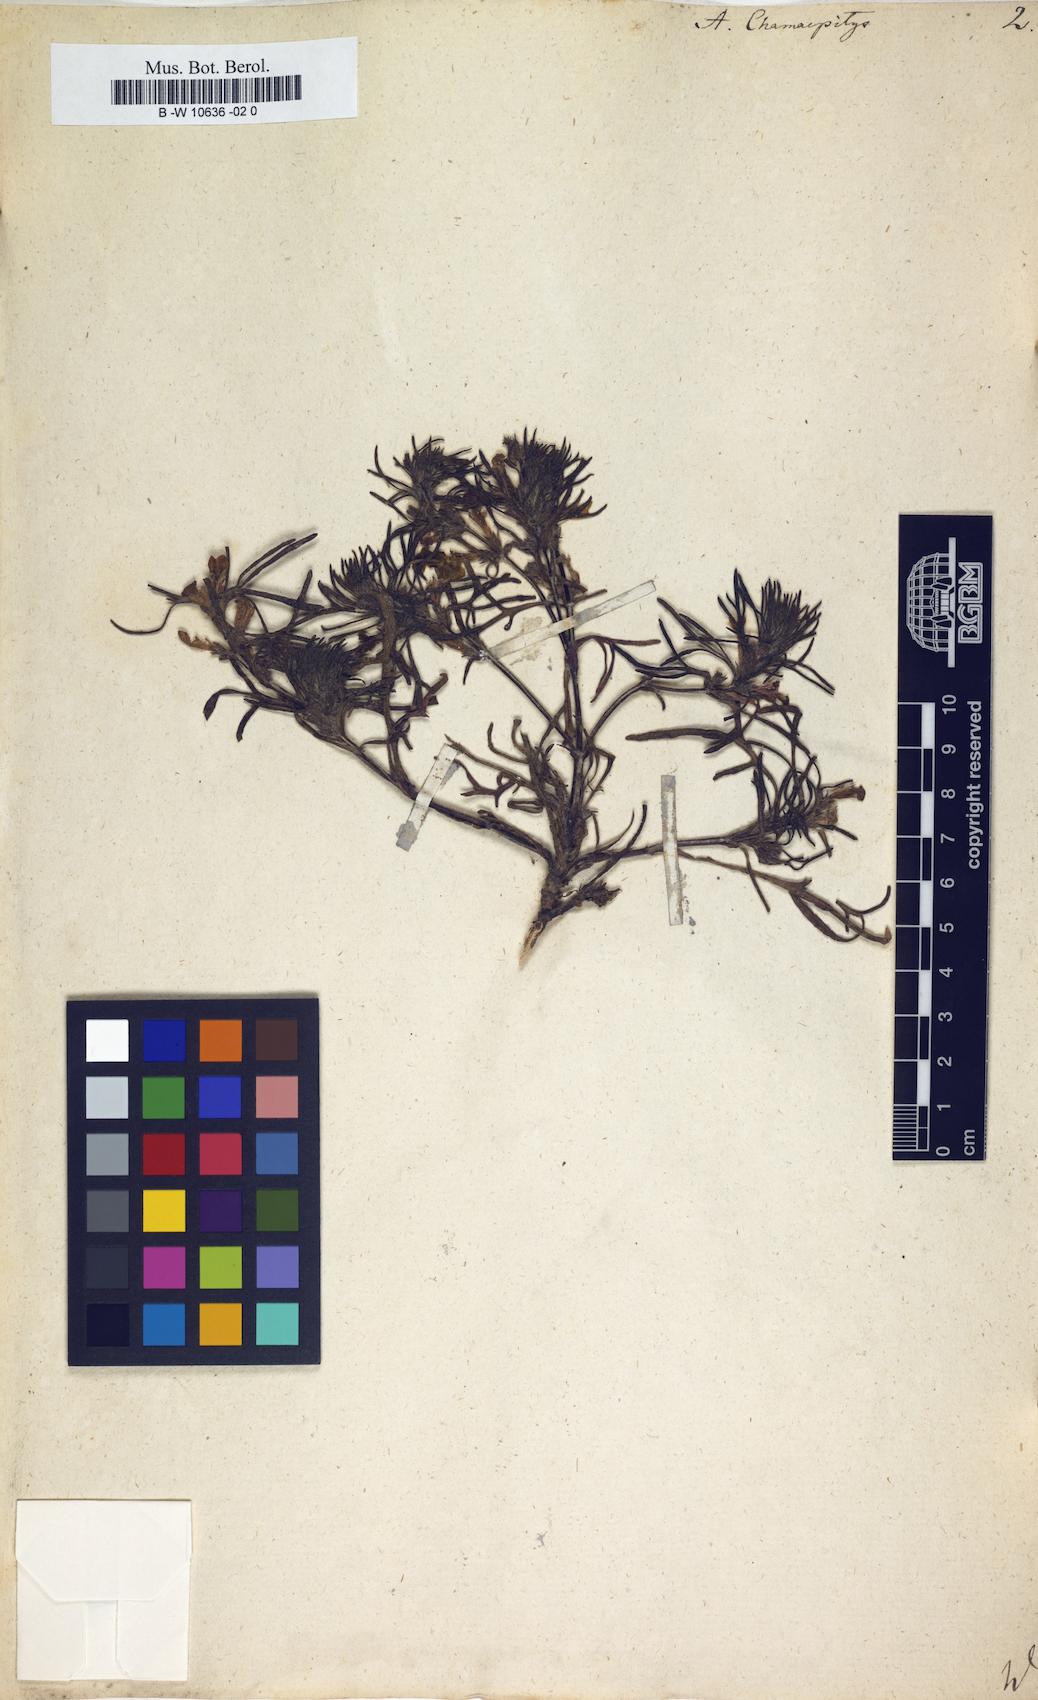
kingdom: Plantae
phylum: Tracheophyta
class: Magnoliopsida
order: Lamiales
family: Lamiaceae
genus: Ajuga
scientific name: Ajuga chamaepitys
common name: Ground-pine
